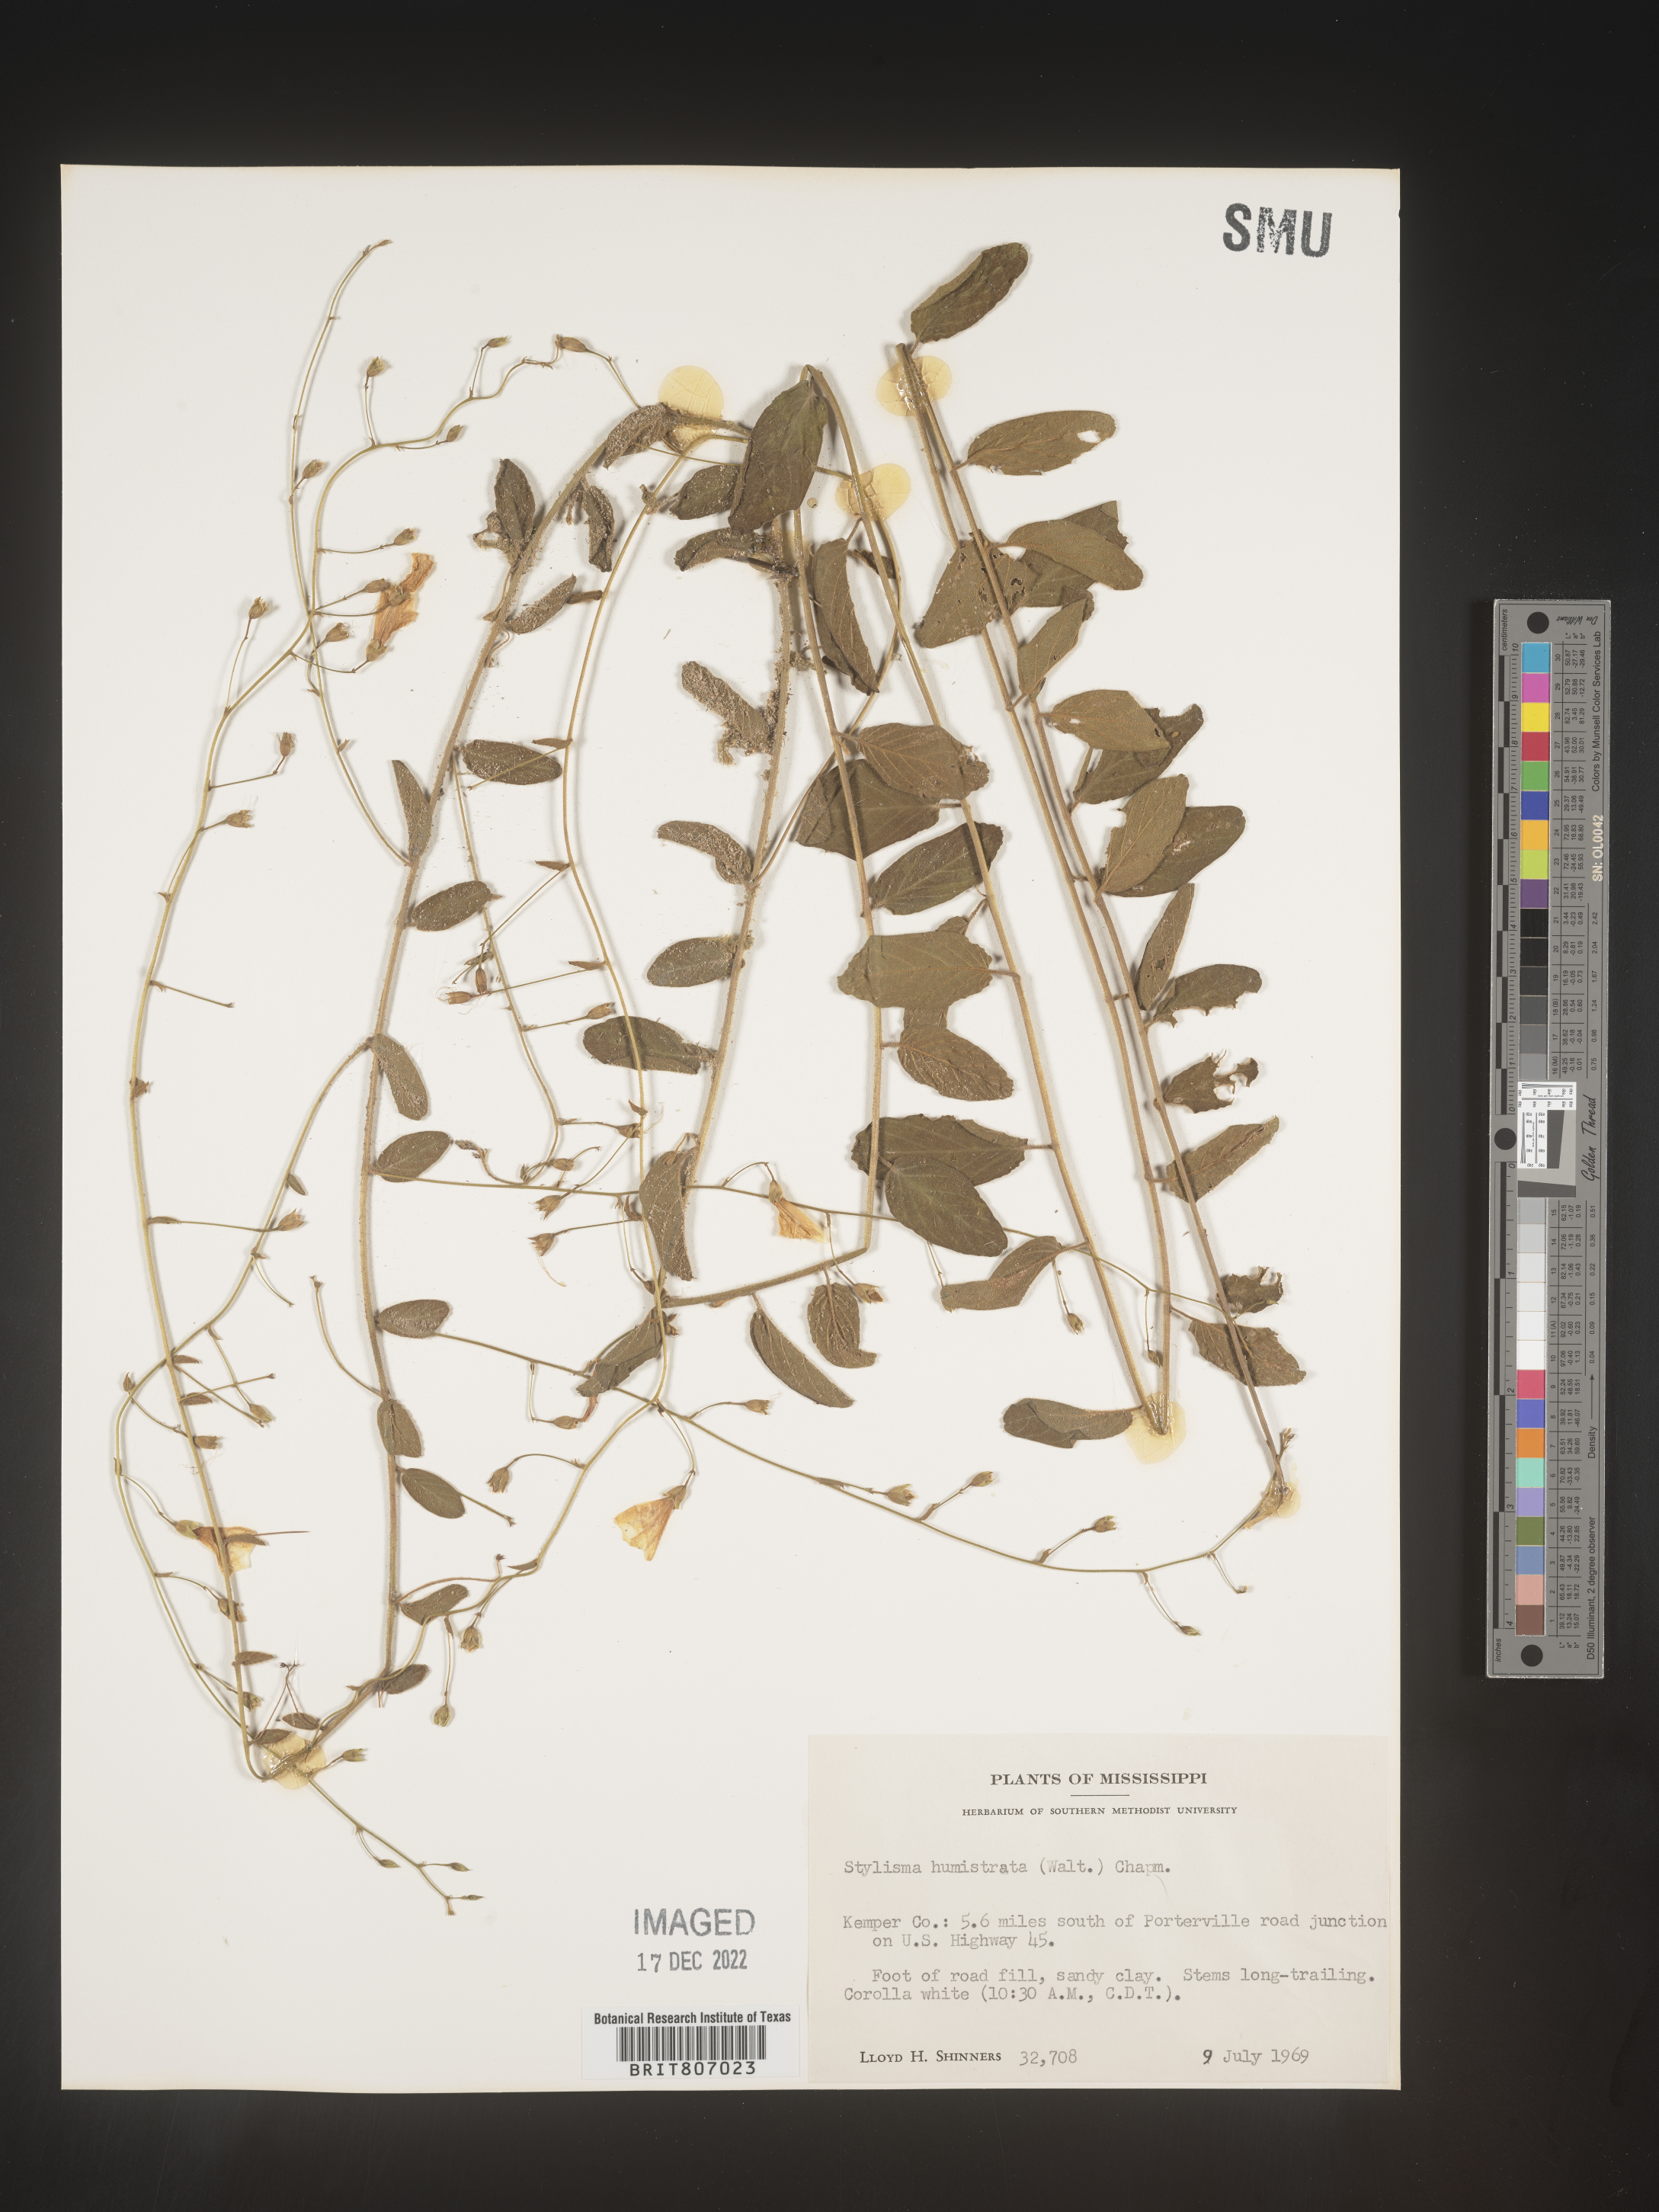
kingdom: Plantae
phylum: Tracheophyta
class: Magnoliopsida
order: Solanales
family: Convolvulaceae
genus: Stylisma
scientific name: Stylisma humistrata
